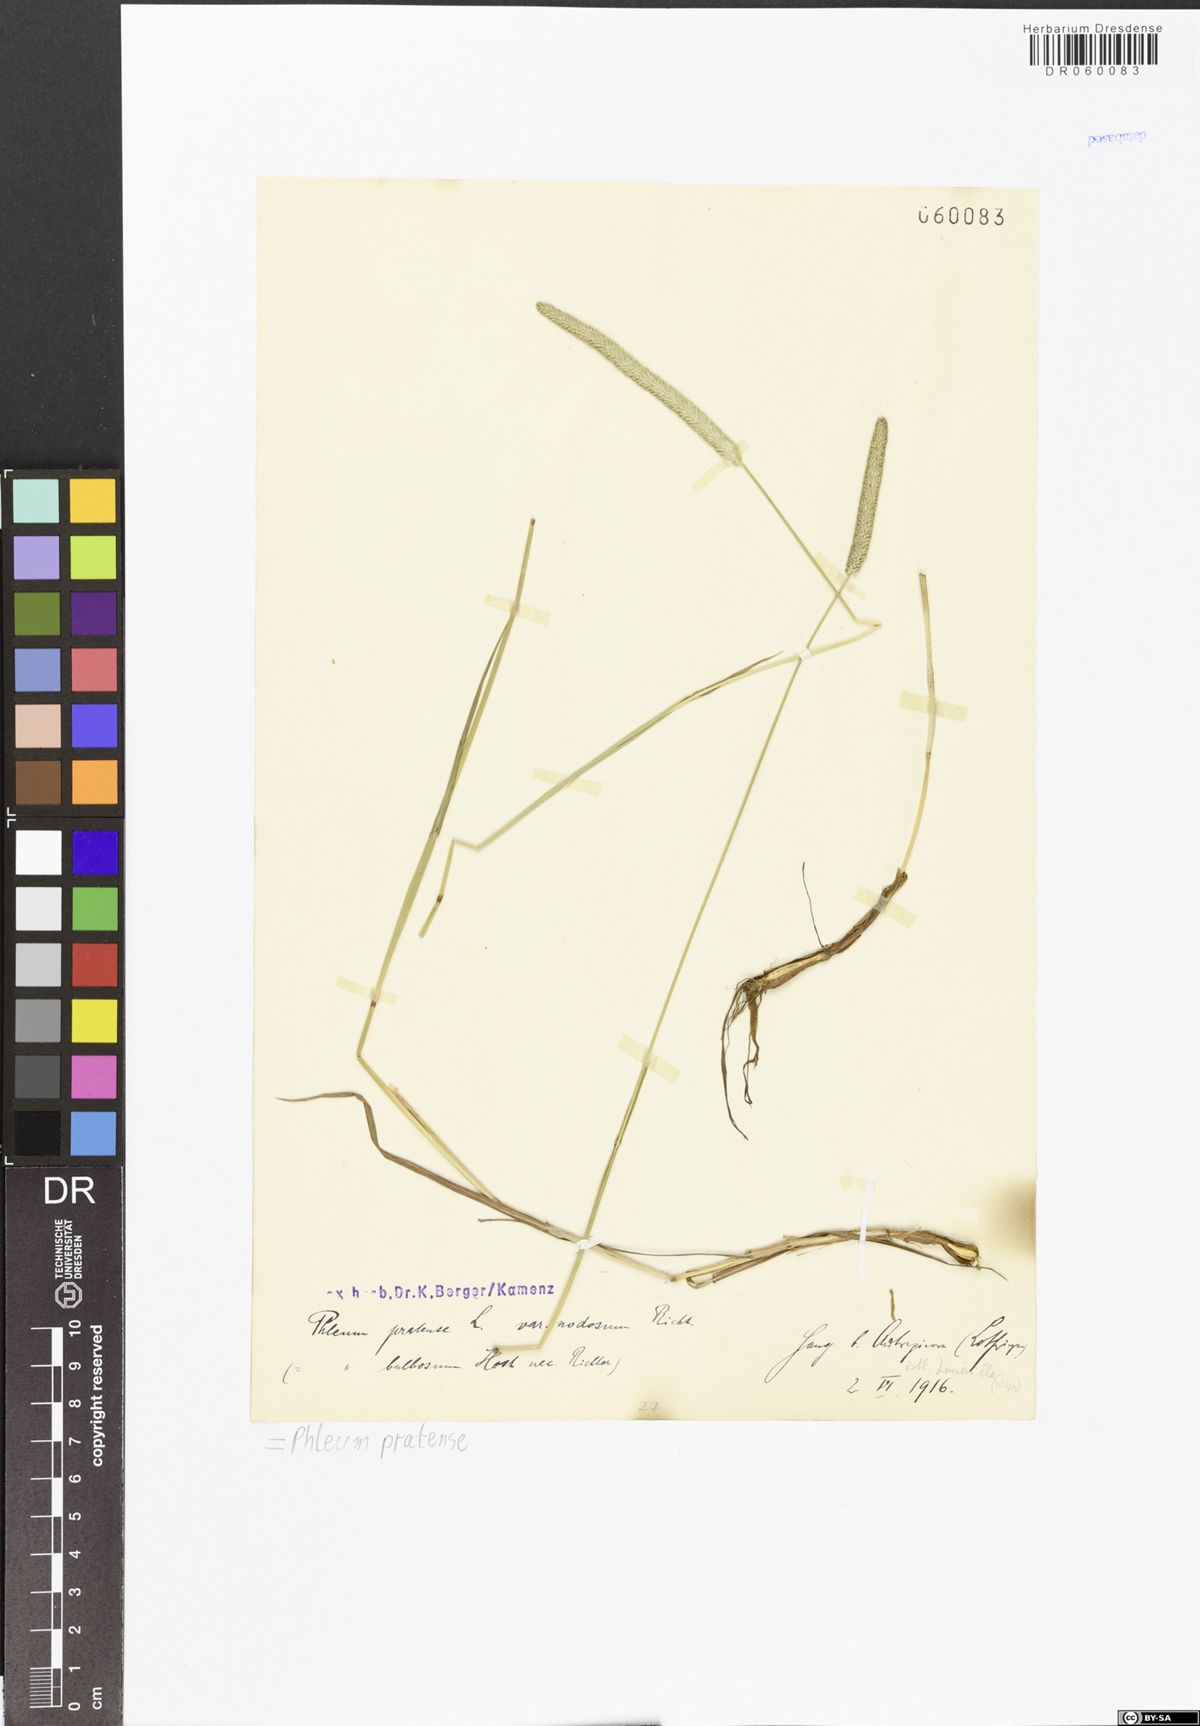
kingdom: Plantae
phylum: Tracheophyta
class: Liliopsida
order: Poales
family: Poaceae
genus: Phleum
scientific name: Phleum pratense
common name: Timothy grass
